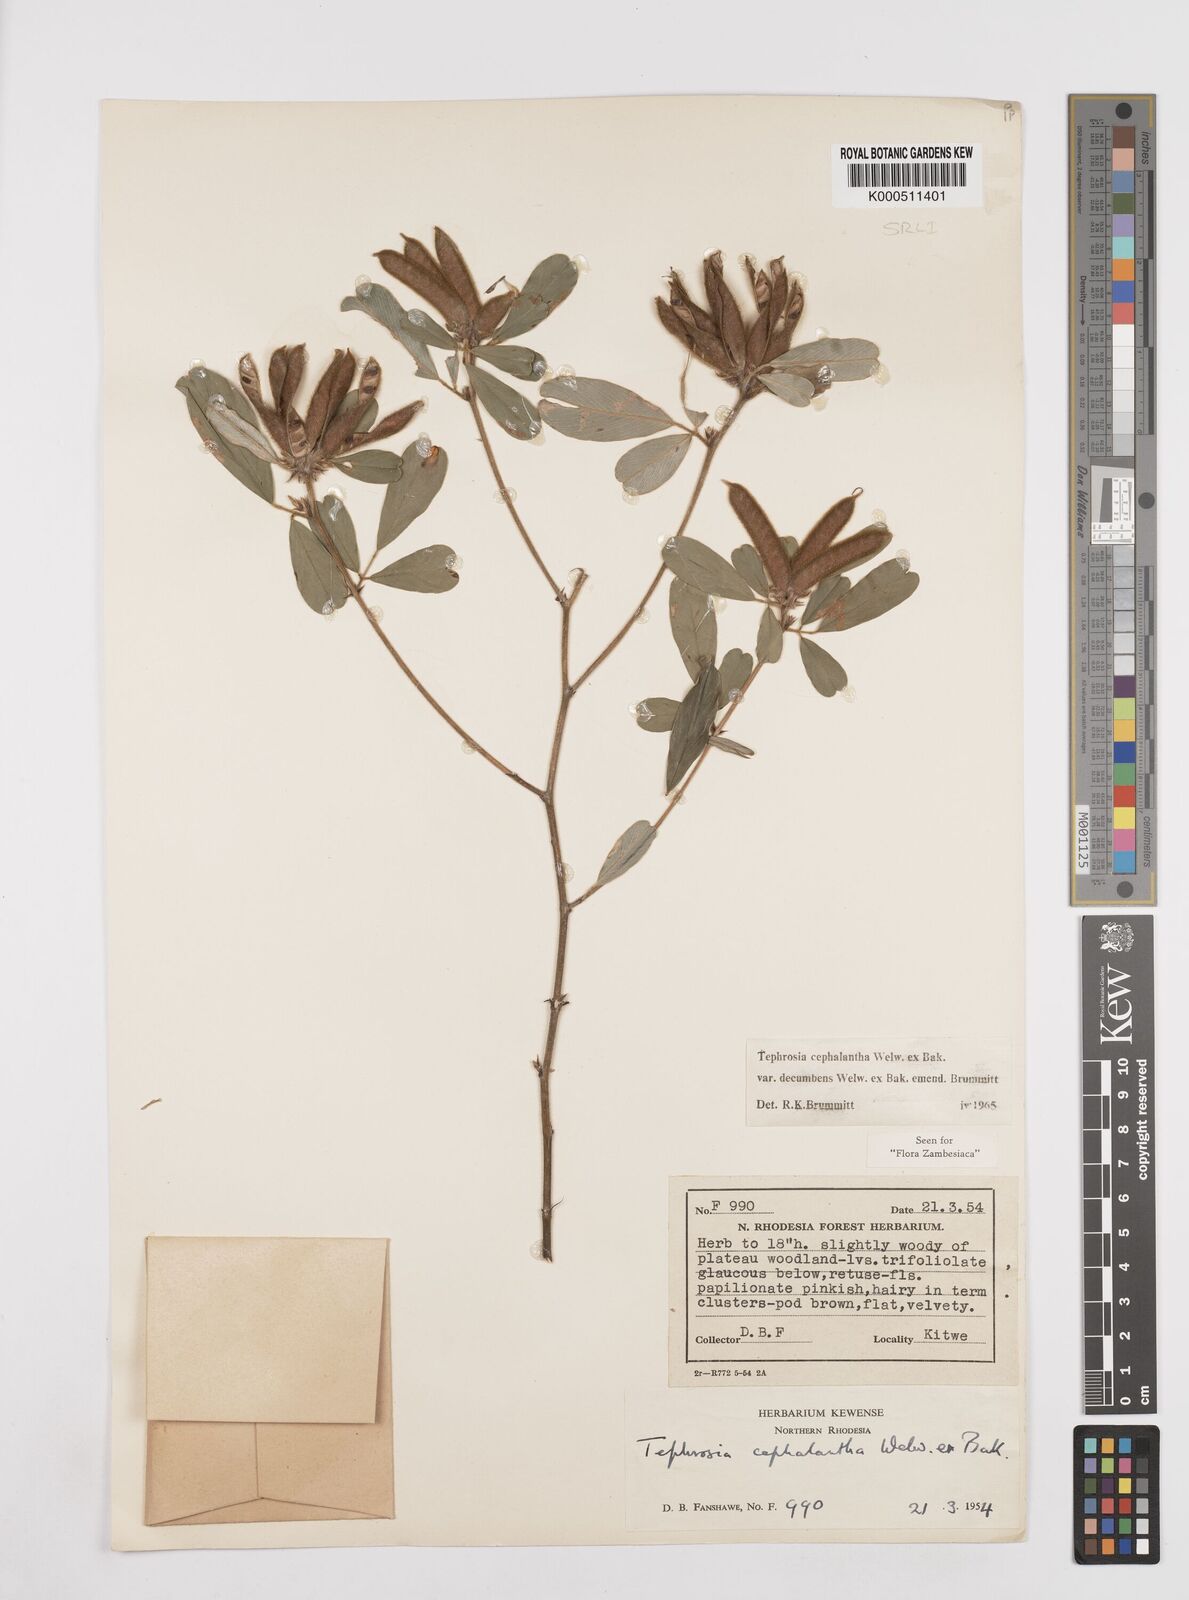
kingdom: Plantae
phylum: Tracheophyta
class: Magnoliopsida
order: Fabales
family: Fabaceae
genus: Tephrosia
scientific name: Tephrosia
